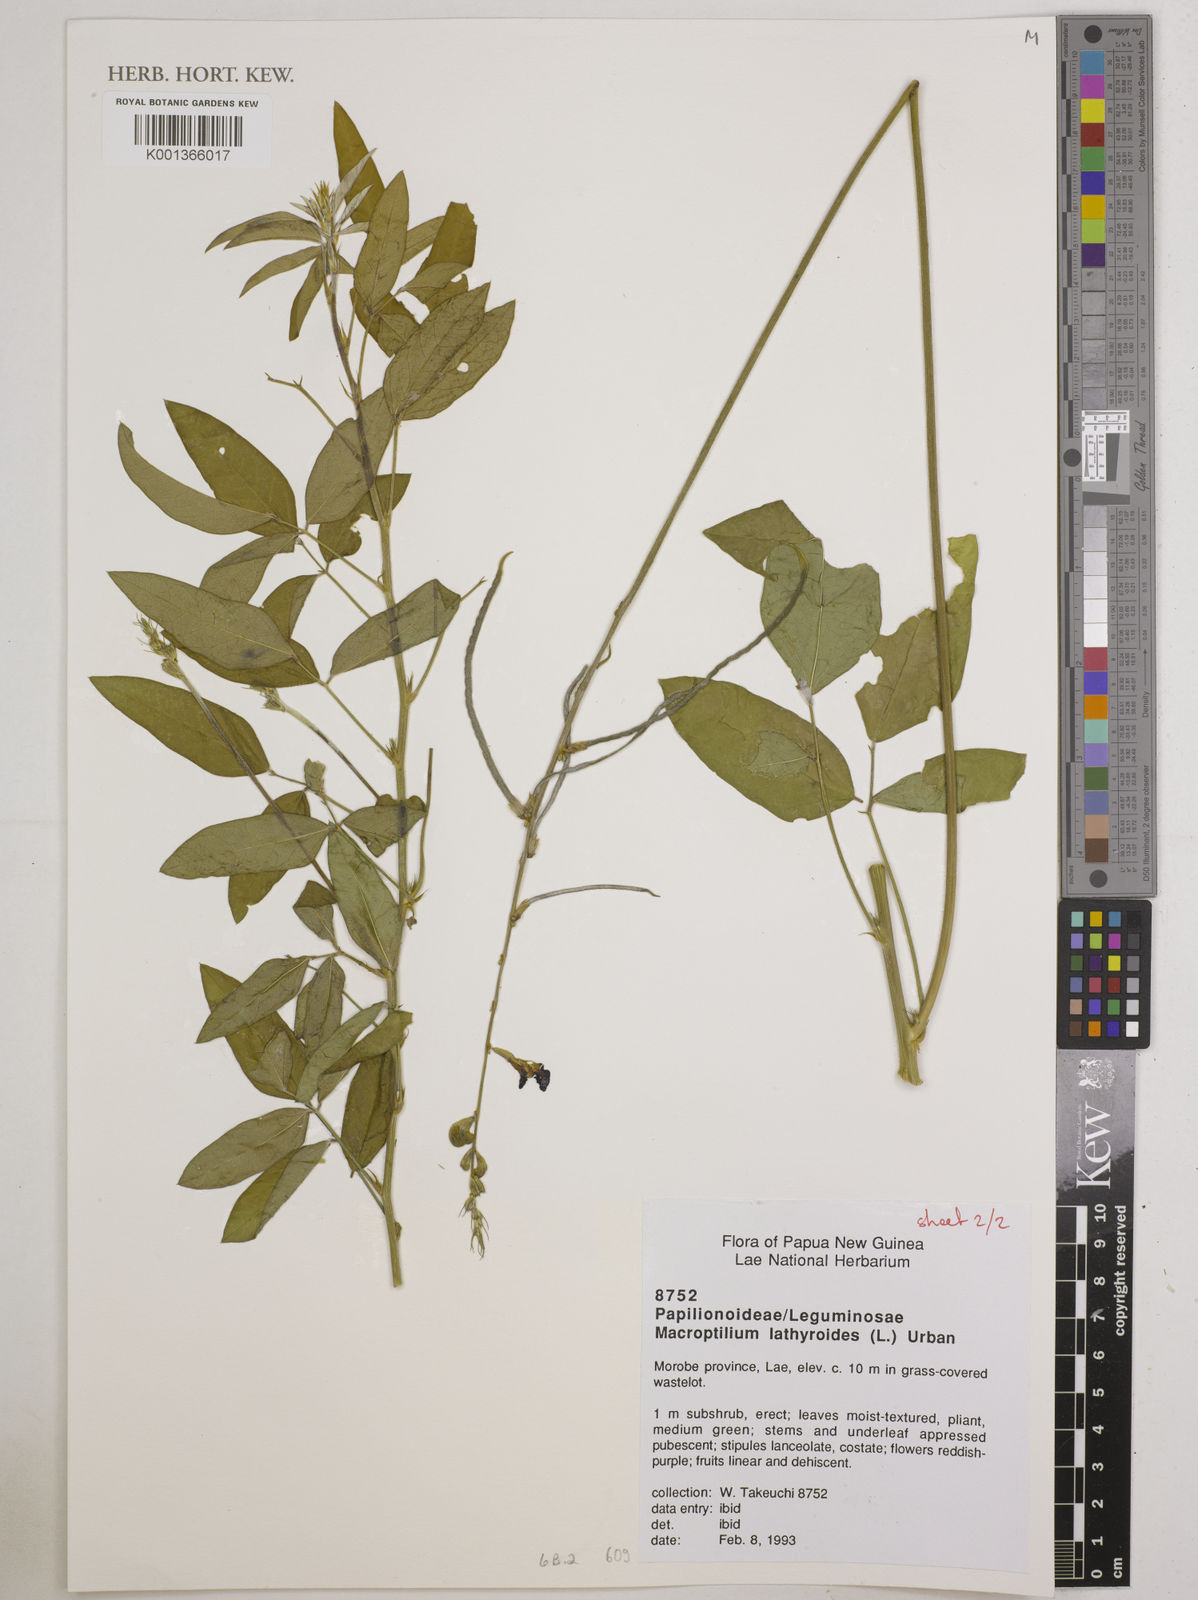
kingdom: Plantae
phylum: Tracheophyta
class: Magnoliopsida
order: Fabales
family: Fabaceae
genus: Macroptilium
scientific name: Macroptilium lathyroides
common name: Wild bushbean
